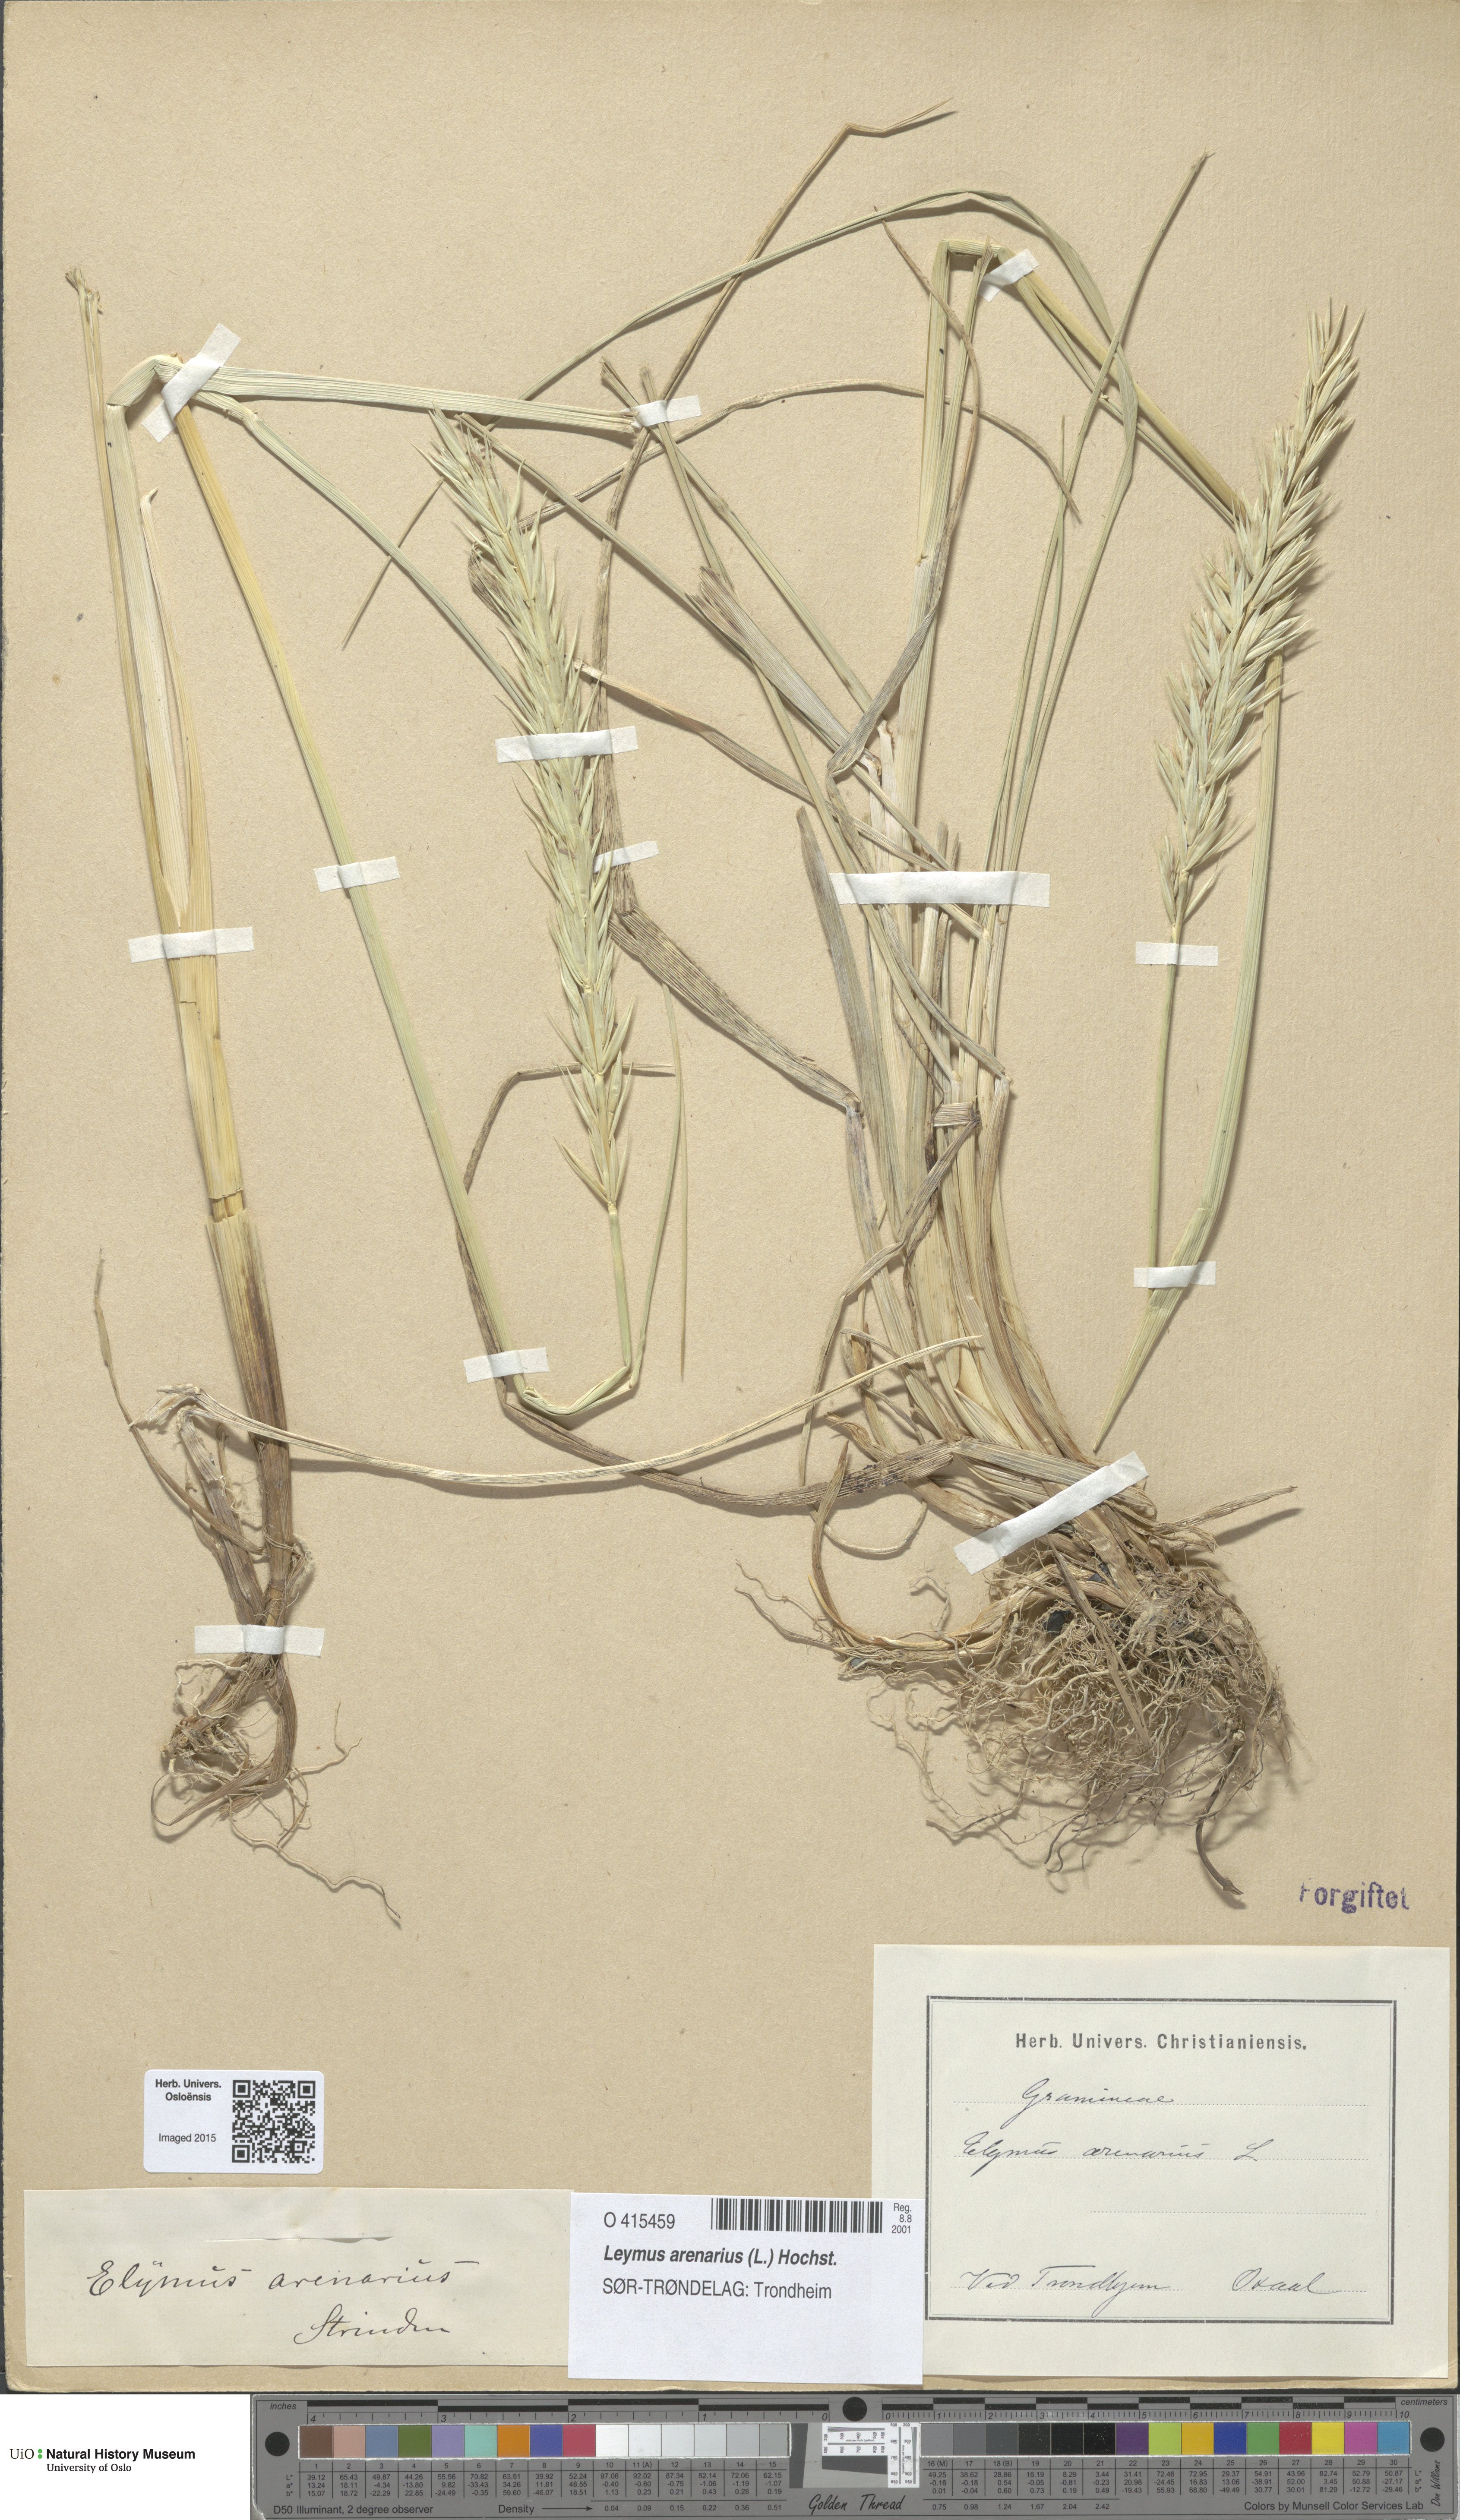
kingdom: Plantae
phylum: Tracheophyta
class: Liliopsida
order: Poales
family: Poaceae
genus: Leymus
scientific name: Leymus arenarius
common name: Lyme-grass
